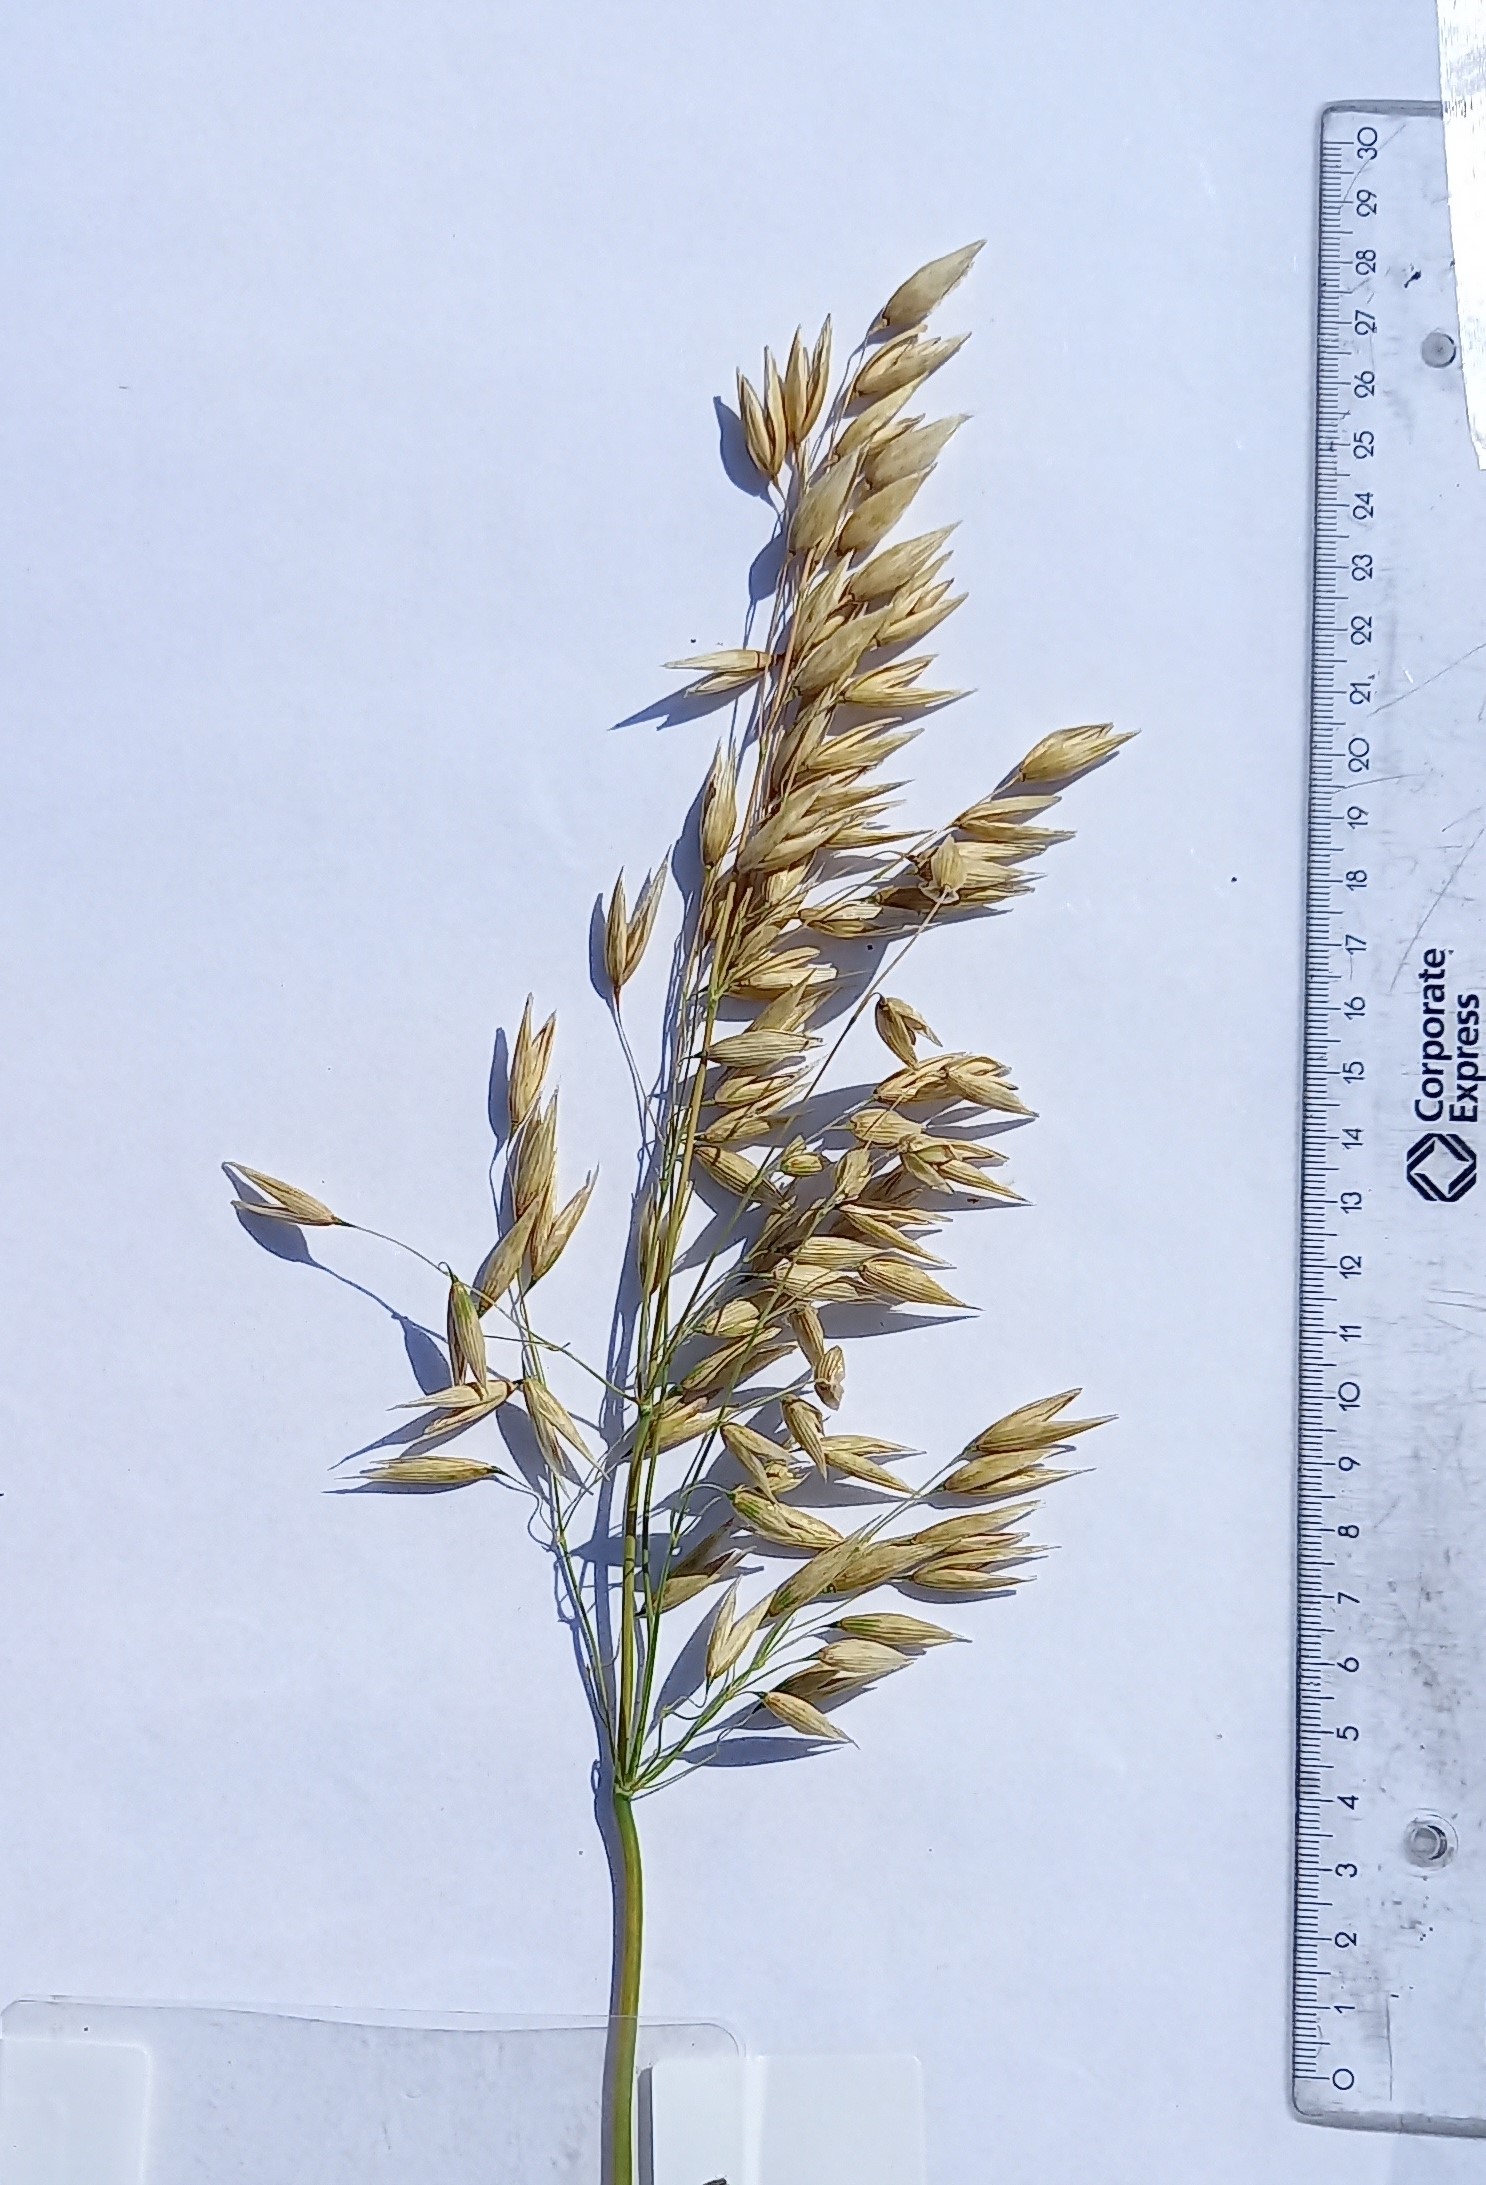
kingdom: Plantae
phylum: Tracheophyta
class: Liliopsida
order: Poales
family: Poaceae
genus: Avena
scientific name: Avena sativa
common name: Oat
